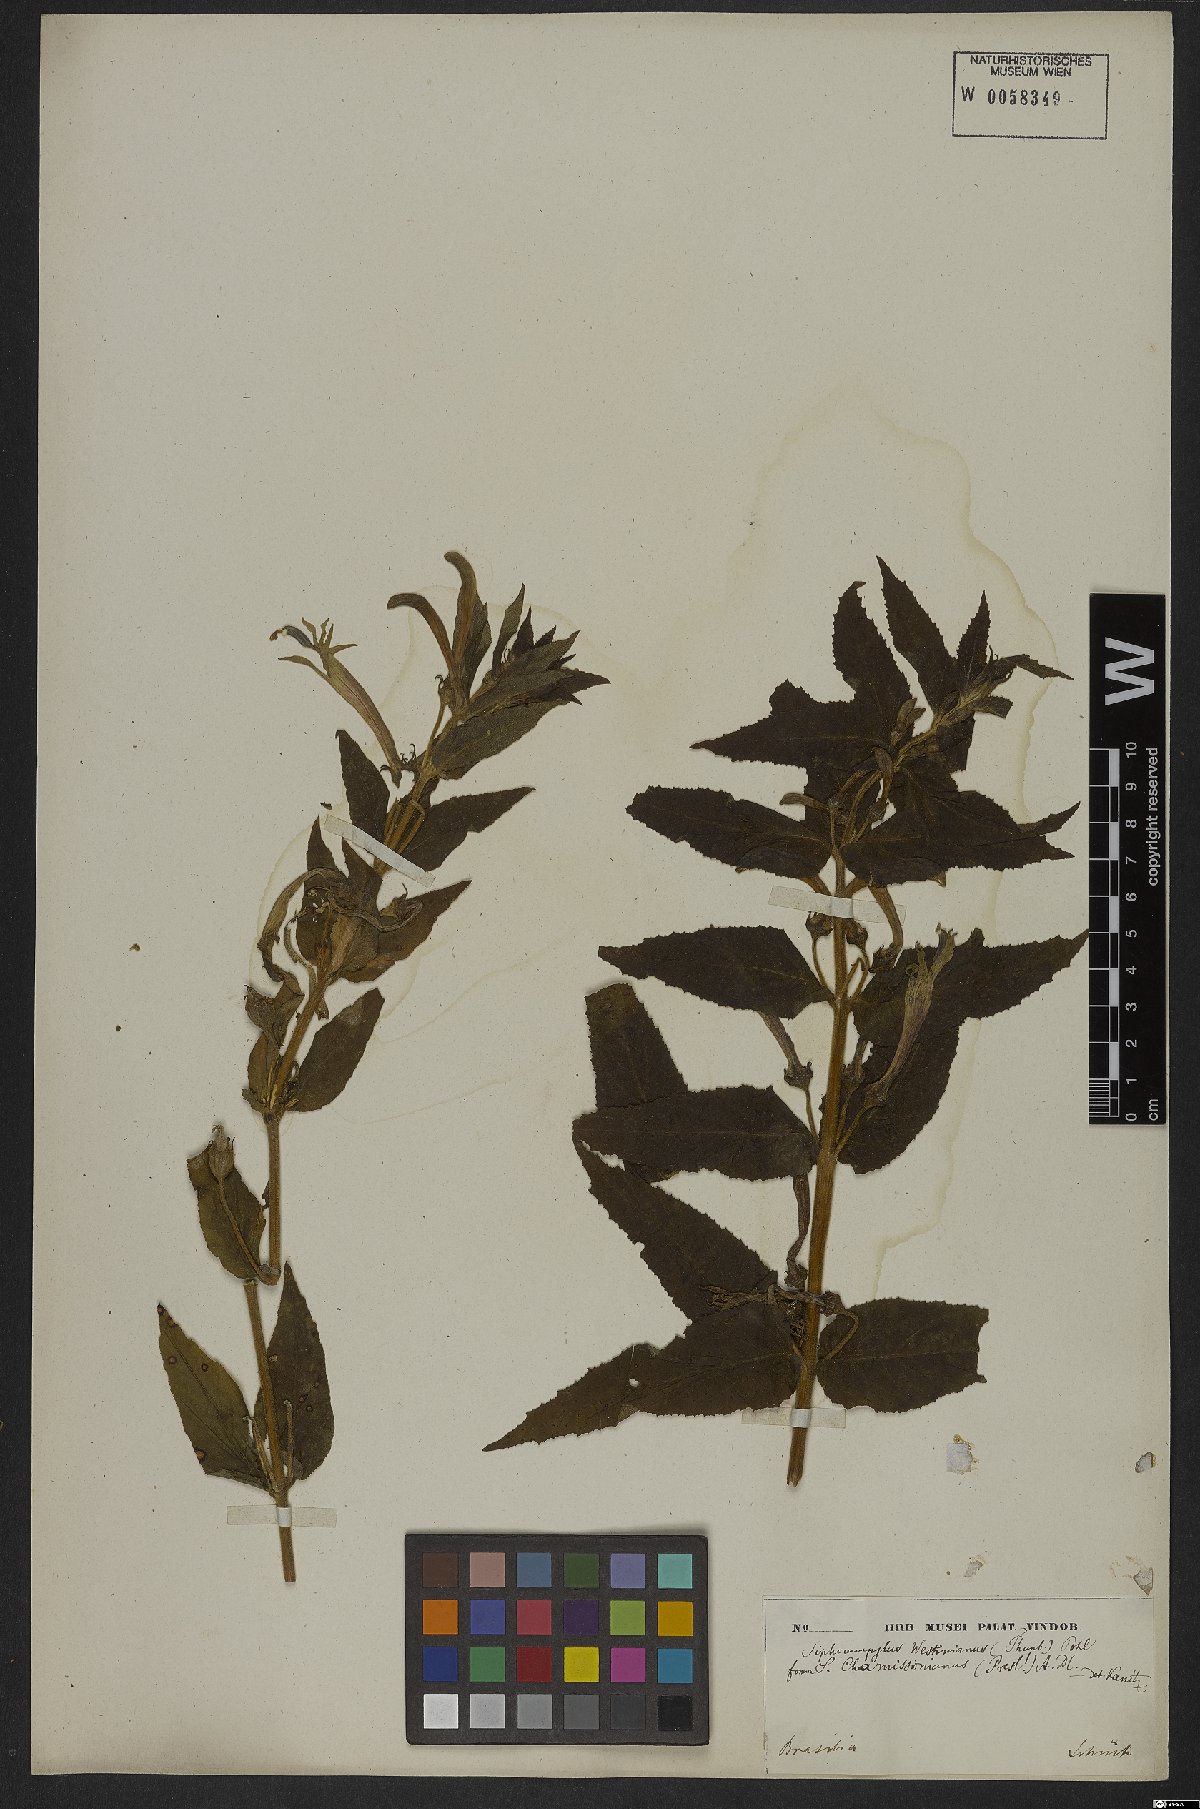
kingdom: Plantae
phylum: Tracheophyta
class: Magnoliopsida
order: Asterales
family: Campanulaceae
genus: Siphocampylus
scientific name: Siphocampylus westinianus
